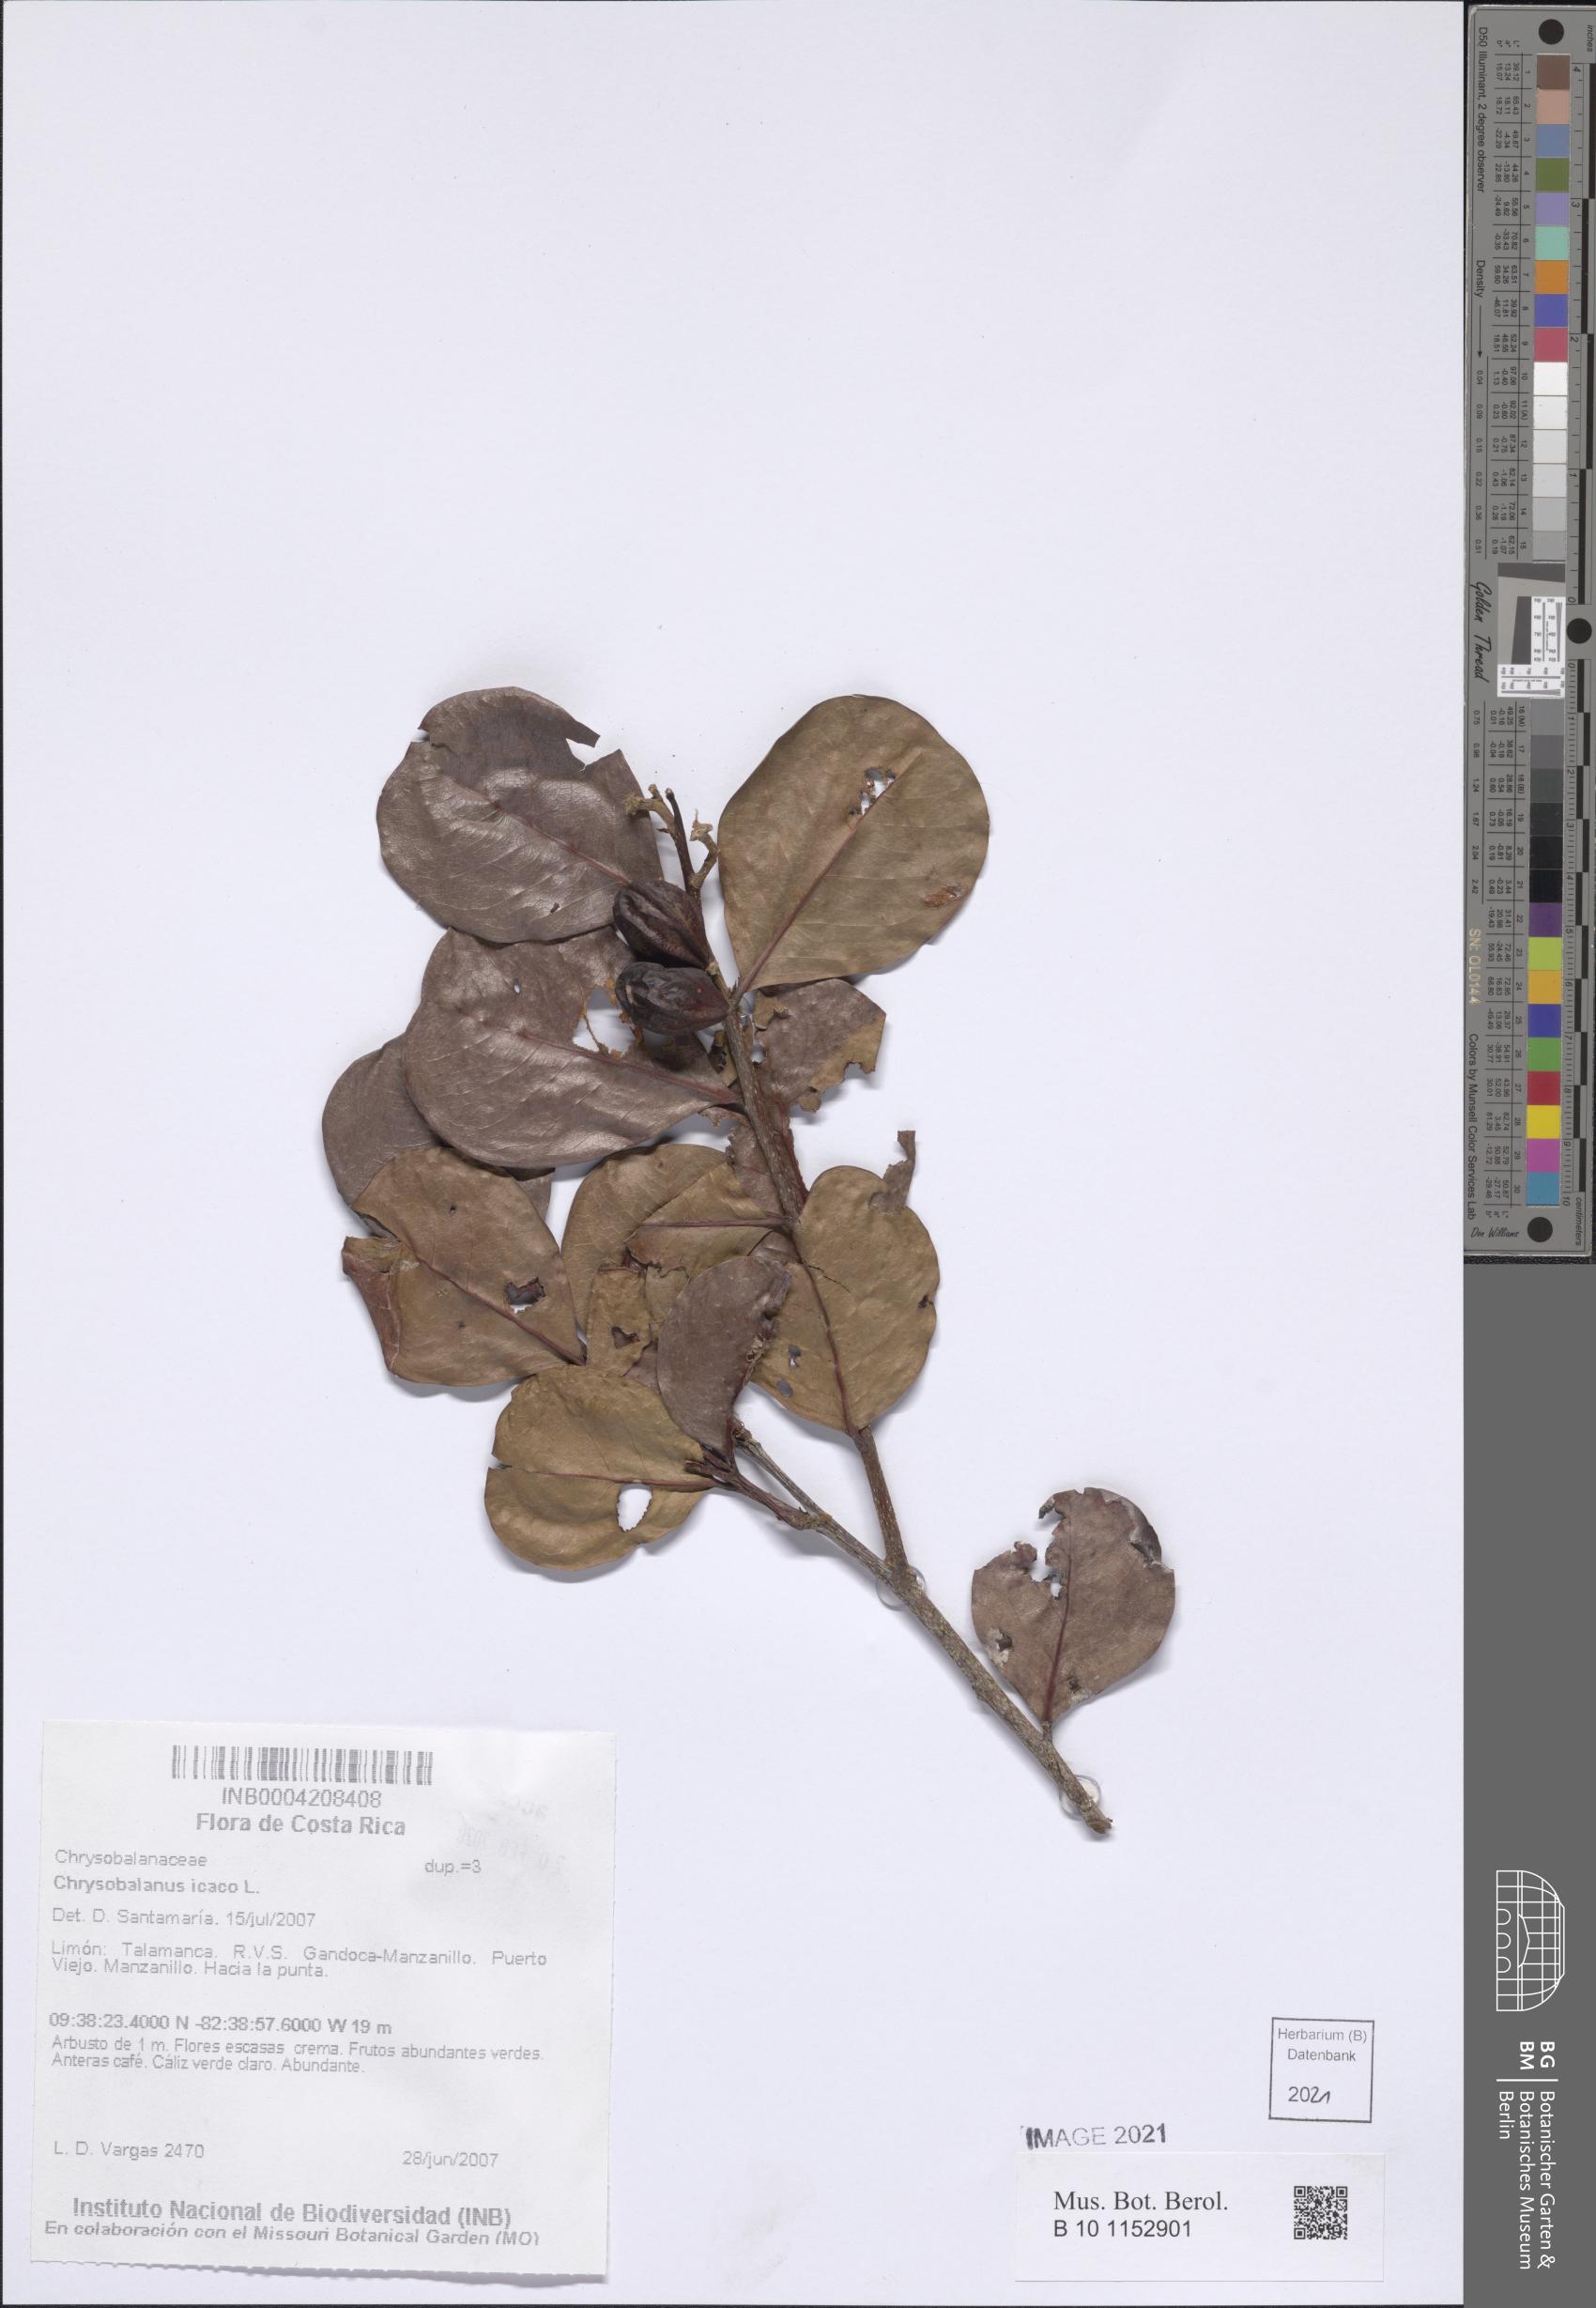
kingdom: Plantae
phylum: Tracheophyta
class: Magnoliopsida
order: Malpighiales
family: Chrysobalanaceae
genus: Chrysobalanus
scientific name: Chrysobalanus icaco
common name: Coco plum
